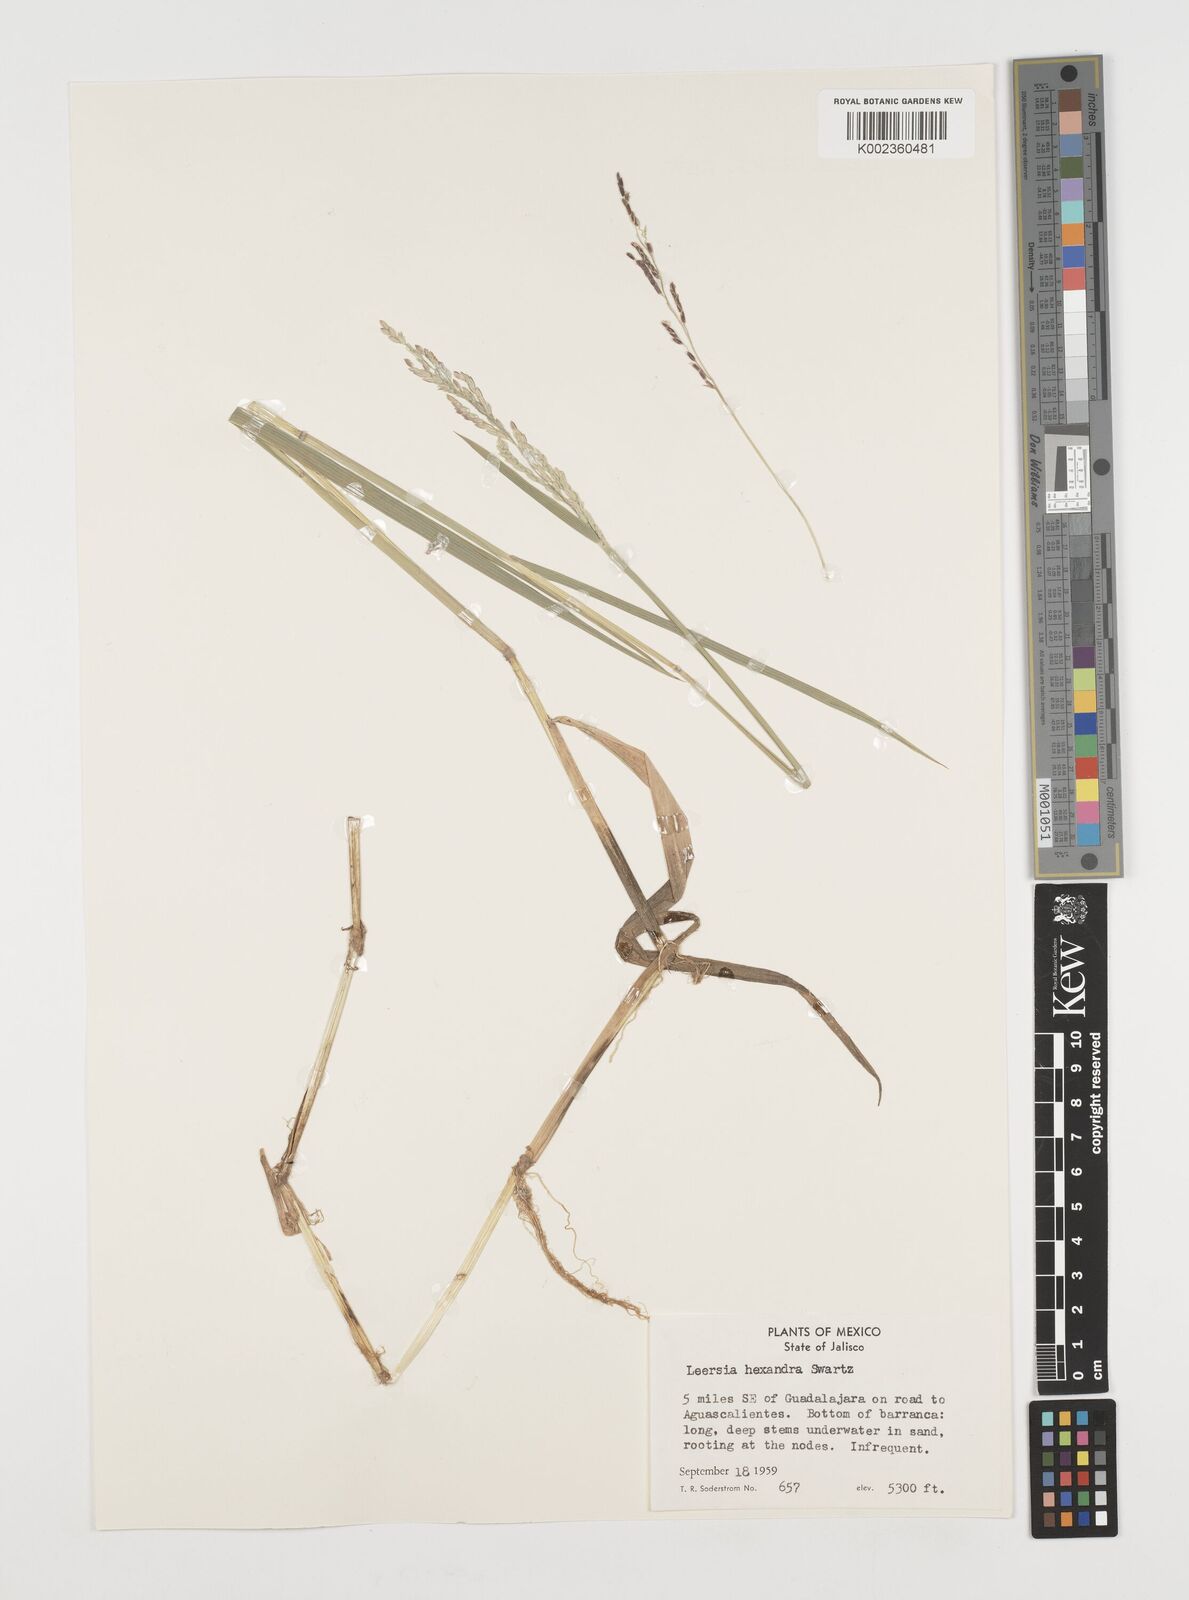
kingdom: Plantae
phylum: Tracheophyta
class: Liliopsida
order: Poales
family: Poaceae
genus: Leersia
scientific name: Leersia hexandra
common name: Southern cut grass
